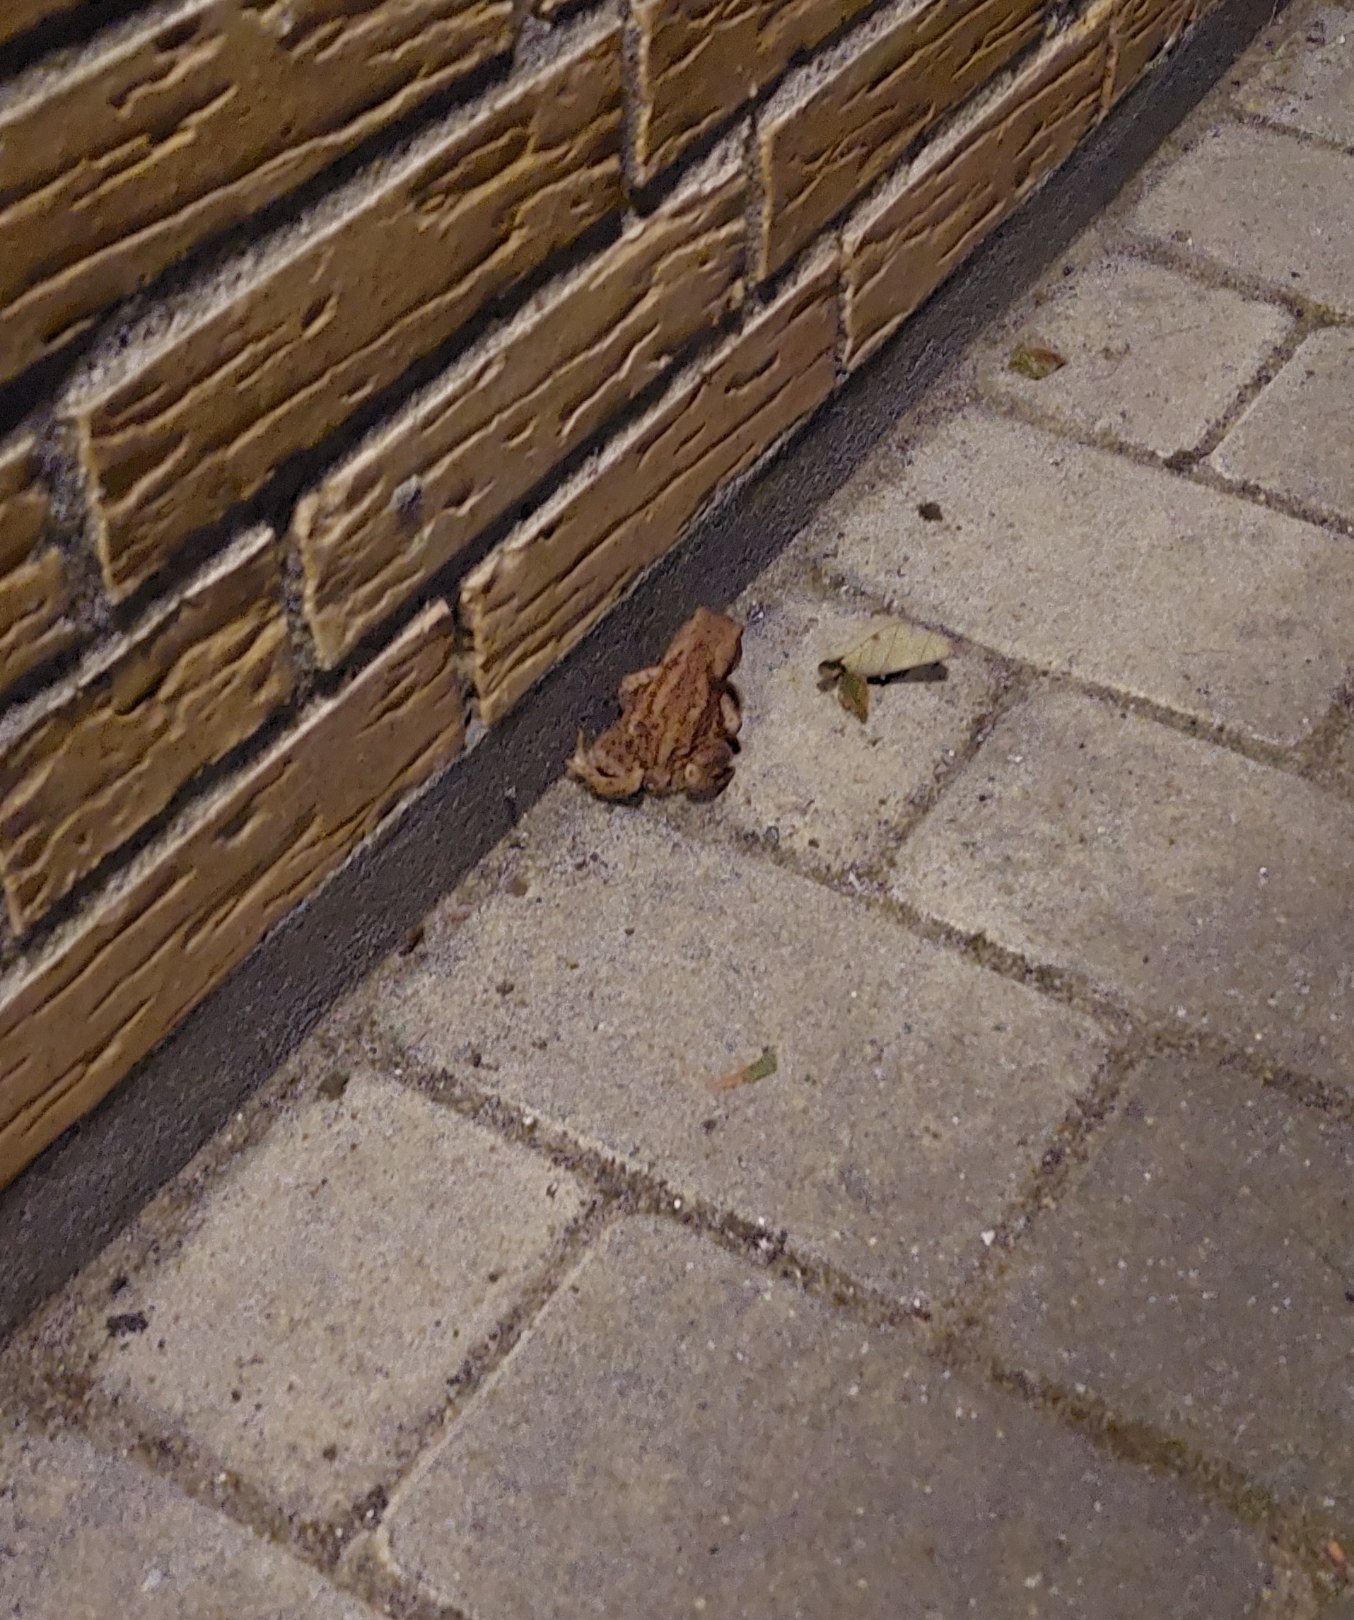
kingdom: Animalia
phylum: Chordata
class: Amphibia
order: Anura
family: Bufonidae
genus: Bufo
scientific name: Bufo bufo
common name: Skrubtudse
